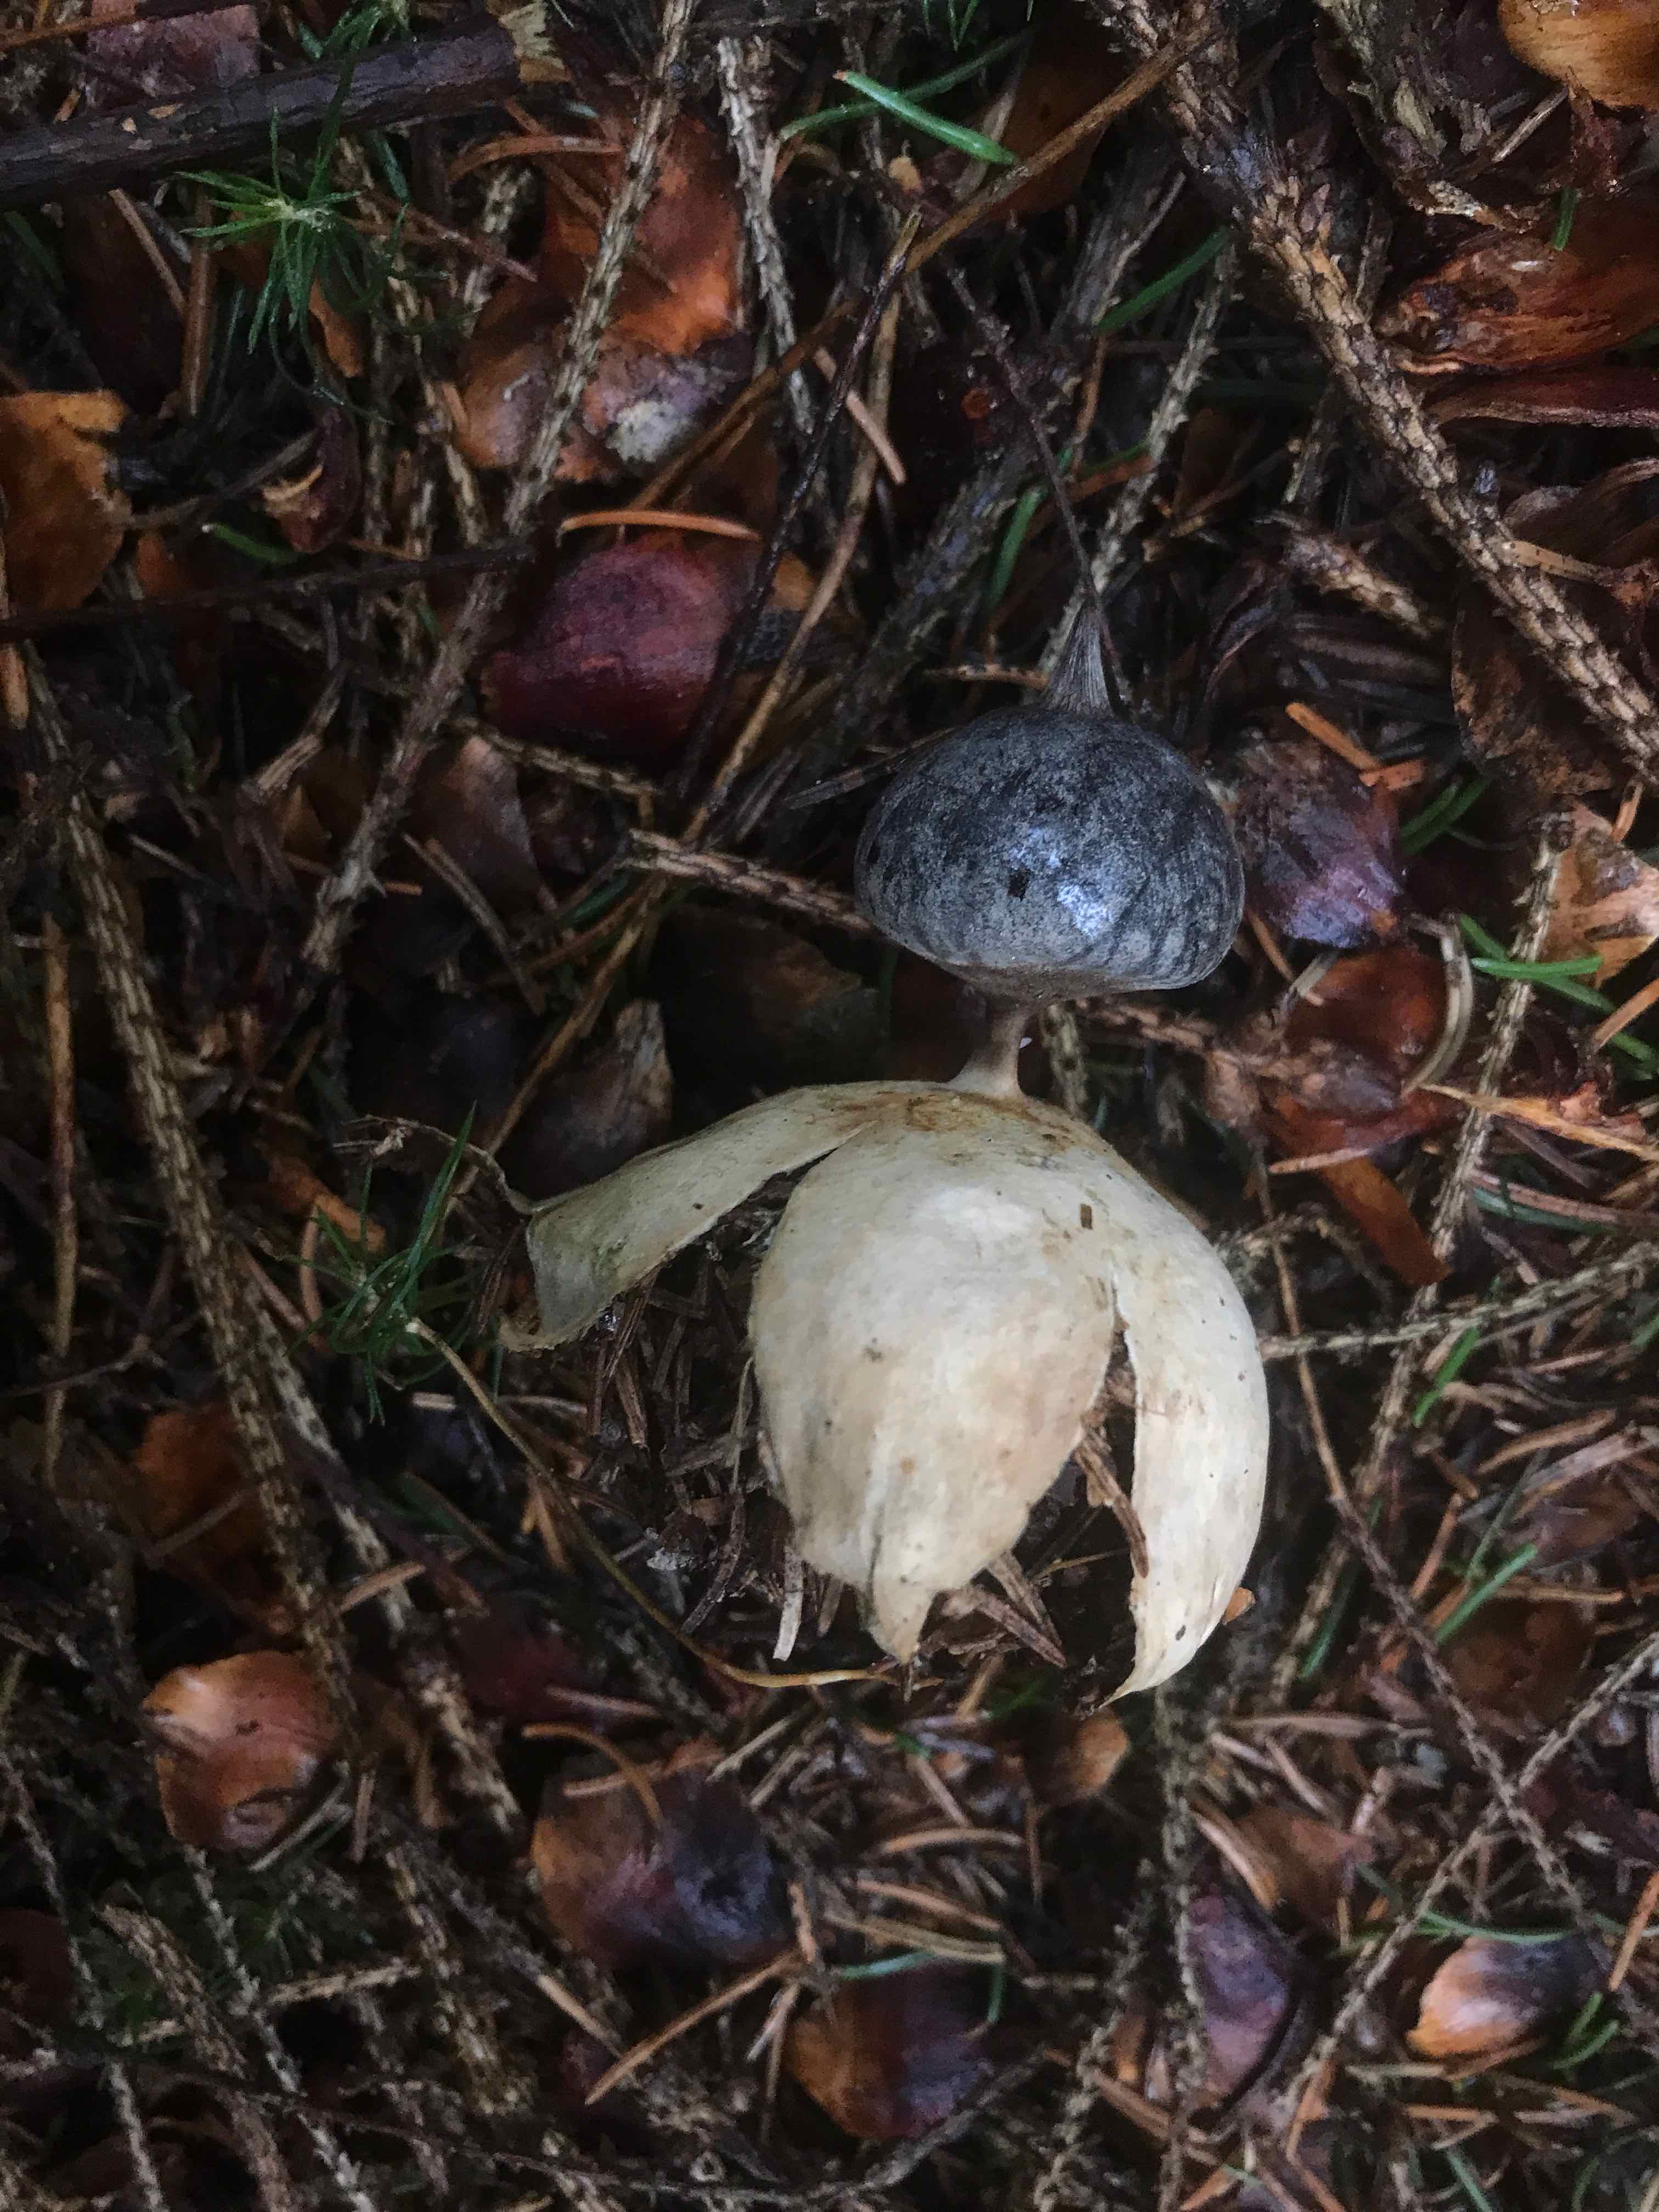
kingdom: Fungi
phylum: Basidiomycota
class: Agaricomycetes
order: Geastrales
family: Geastraceae
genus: Geastrum
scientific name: Geastrum pectinatum
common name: stilket stjernebold
